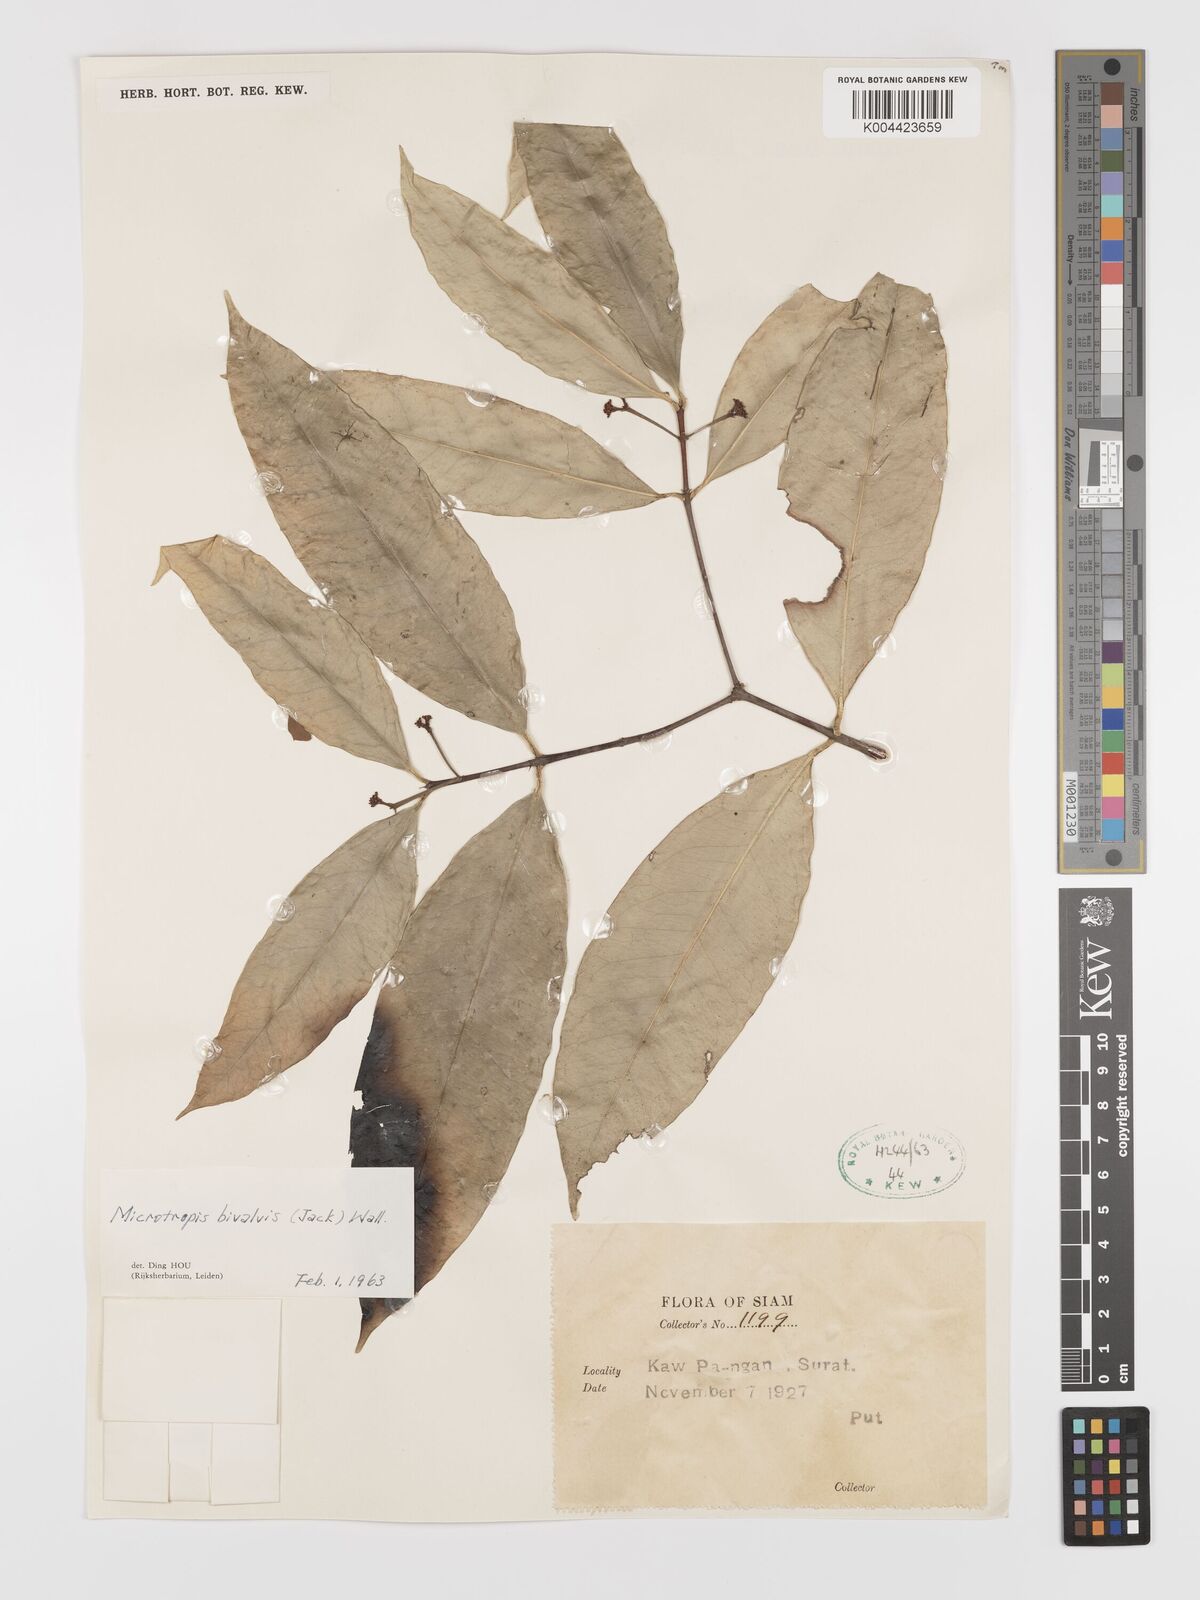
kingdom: Plantae
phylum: Tracheophyta
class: Magnoliopsida
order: Celastrales
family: Celastraceae
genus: Microtropis
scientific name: Microtropis bivalvis
